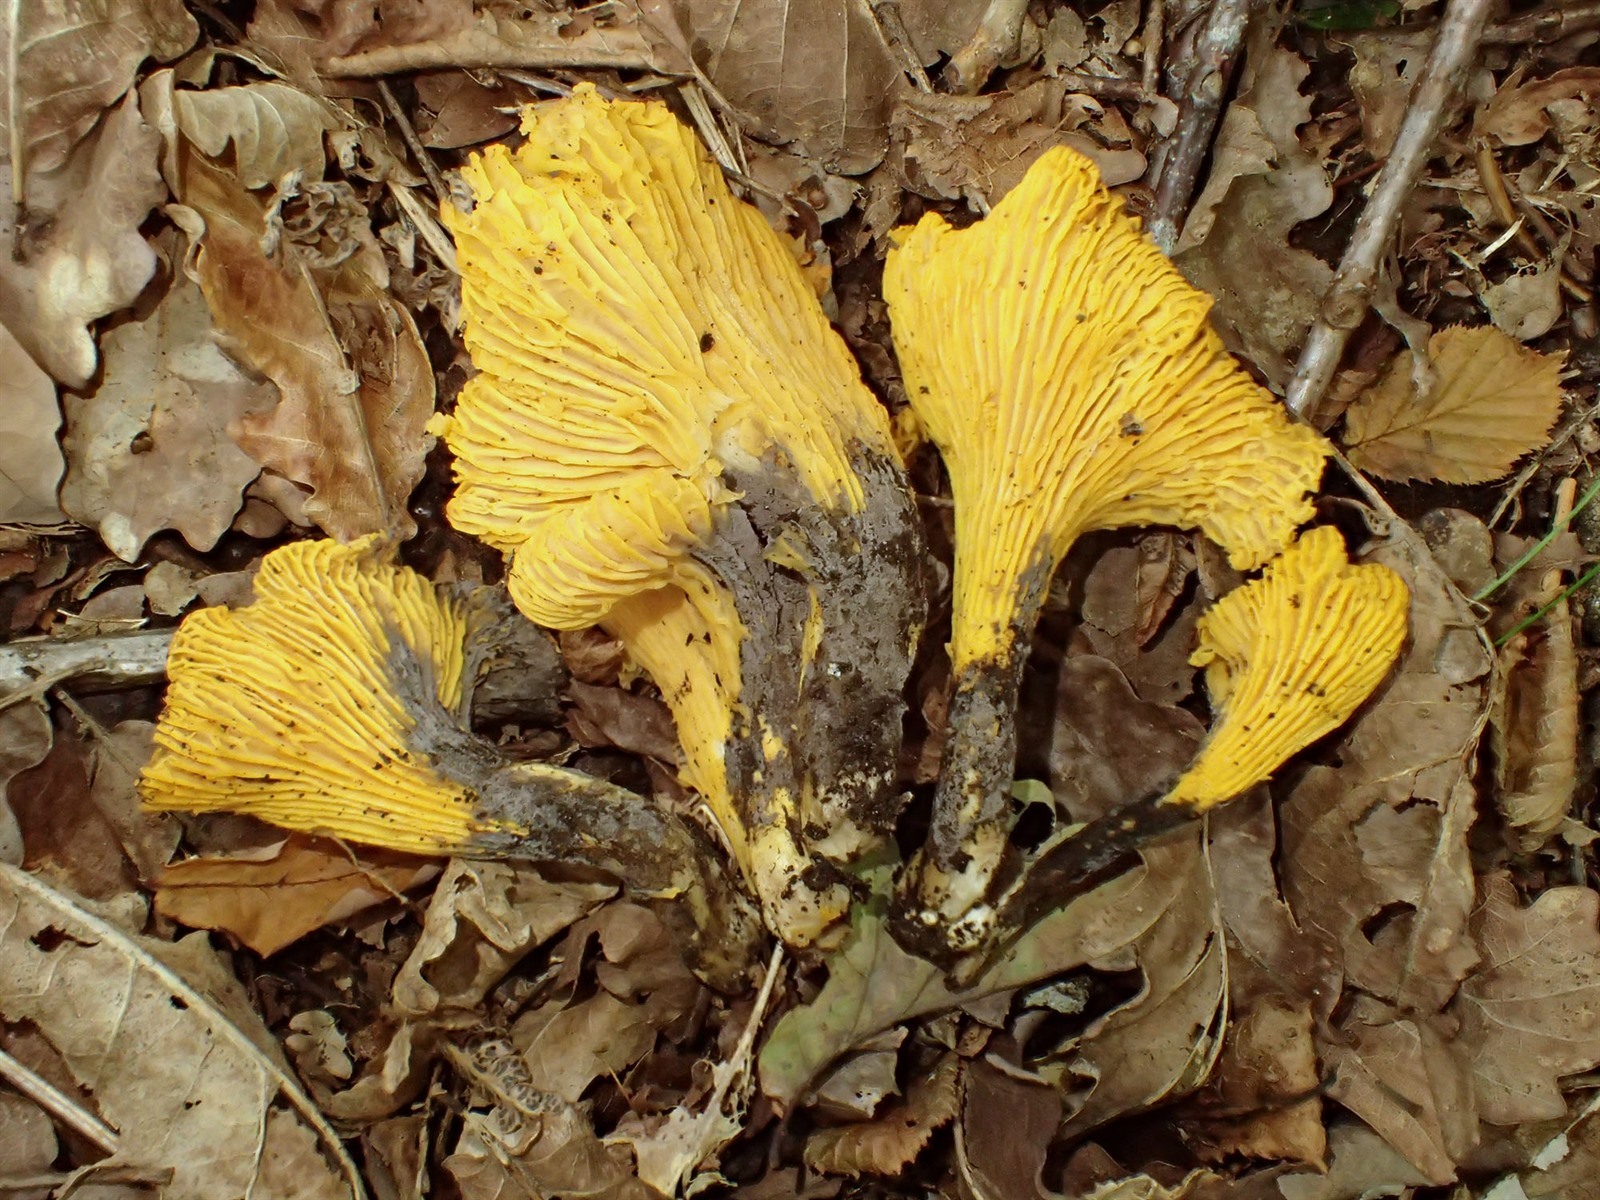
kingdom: Fungi
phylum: Basidiomycota
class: Agaricomycetes
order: Thelephorales
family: Thelephoraceae
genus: Tomentella
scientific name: Tomentella
